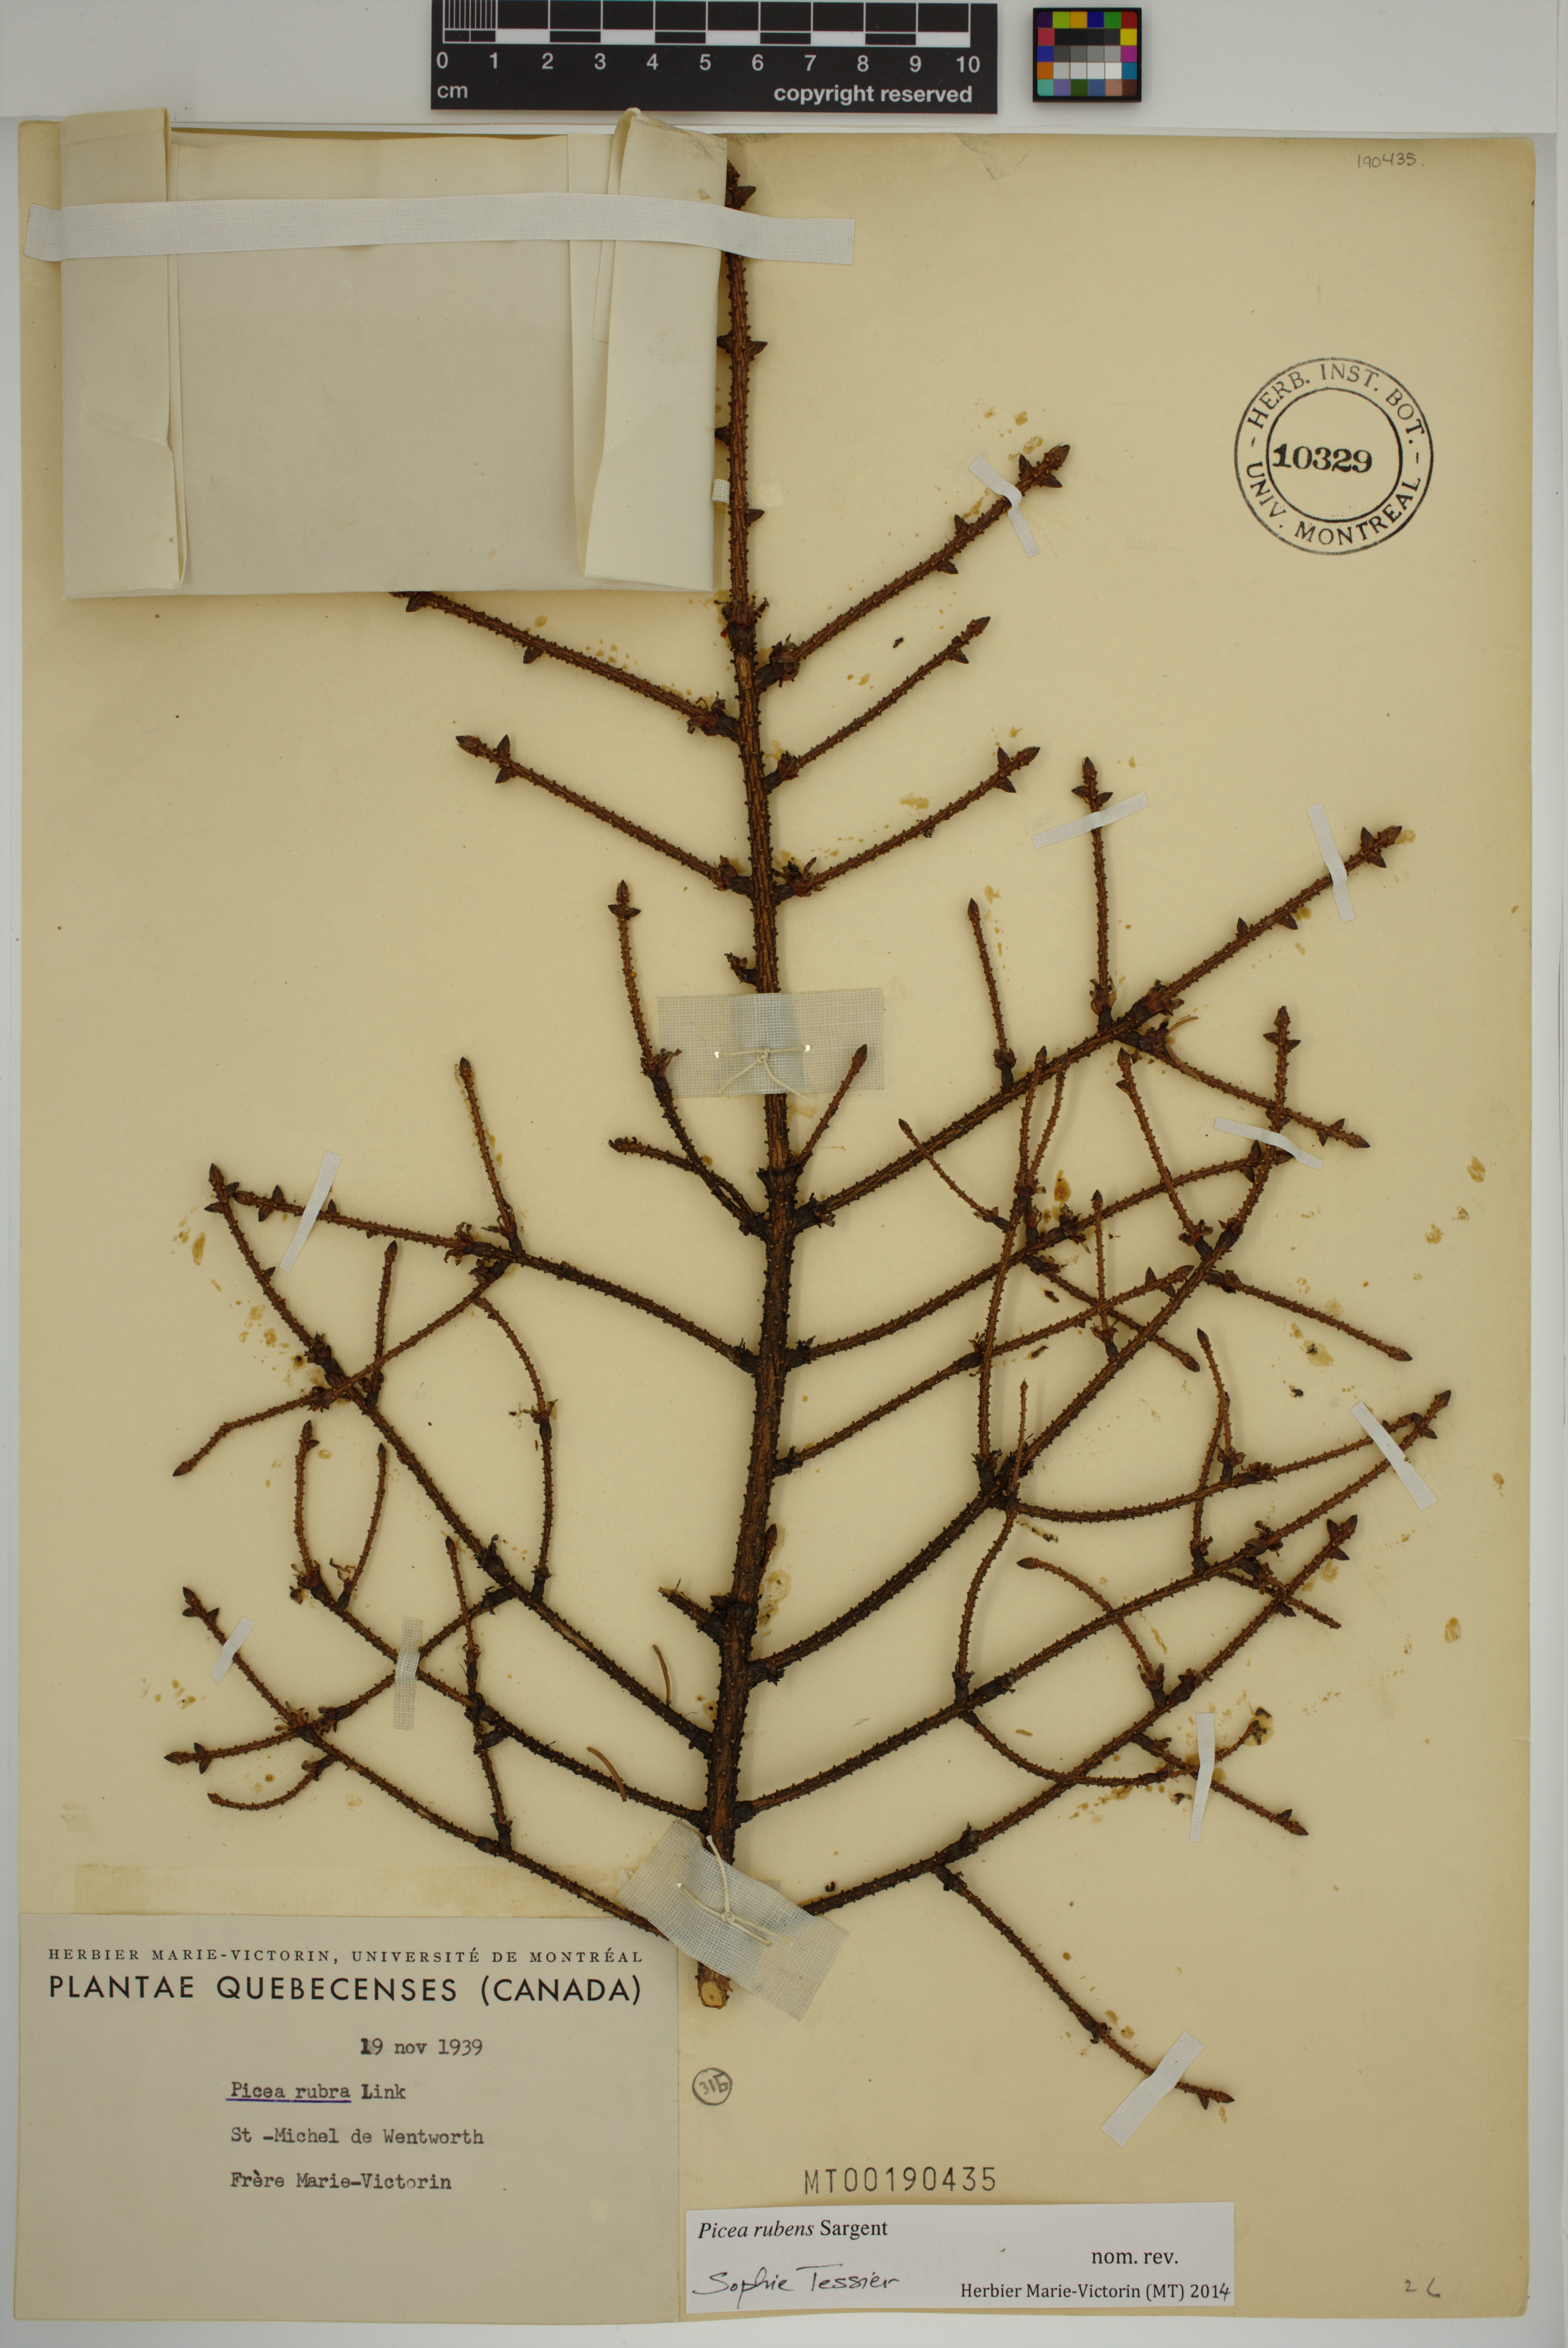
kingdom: Plantae
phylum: Tracheophyta
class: Pinopsida
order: Pinales
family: Pinaceae
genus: Picea
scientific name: Picea rubens
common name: Red spruce
